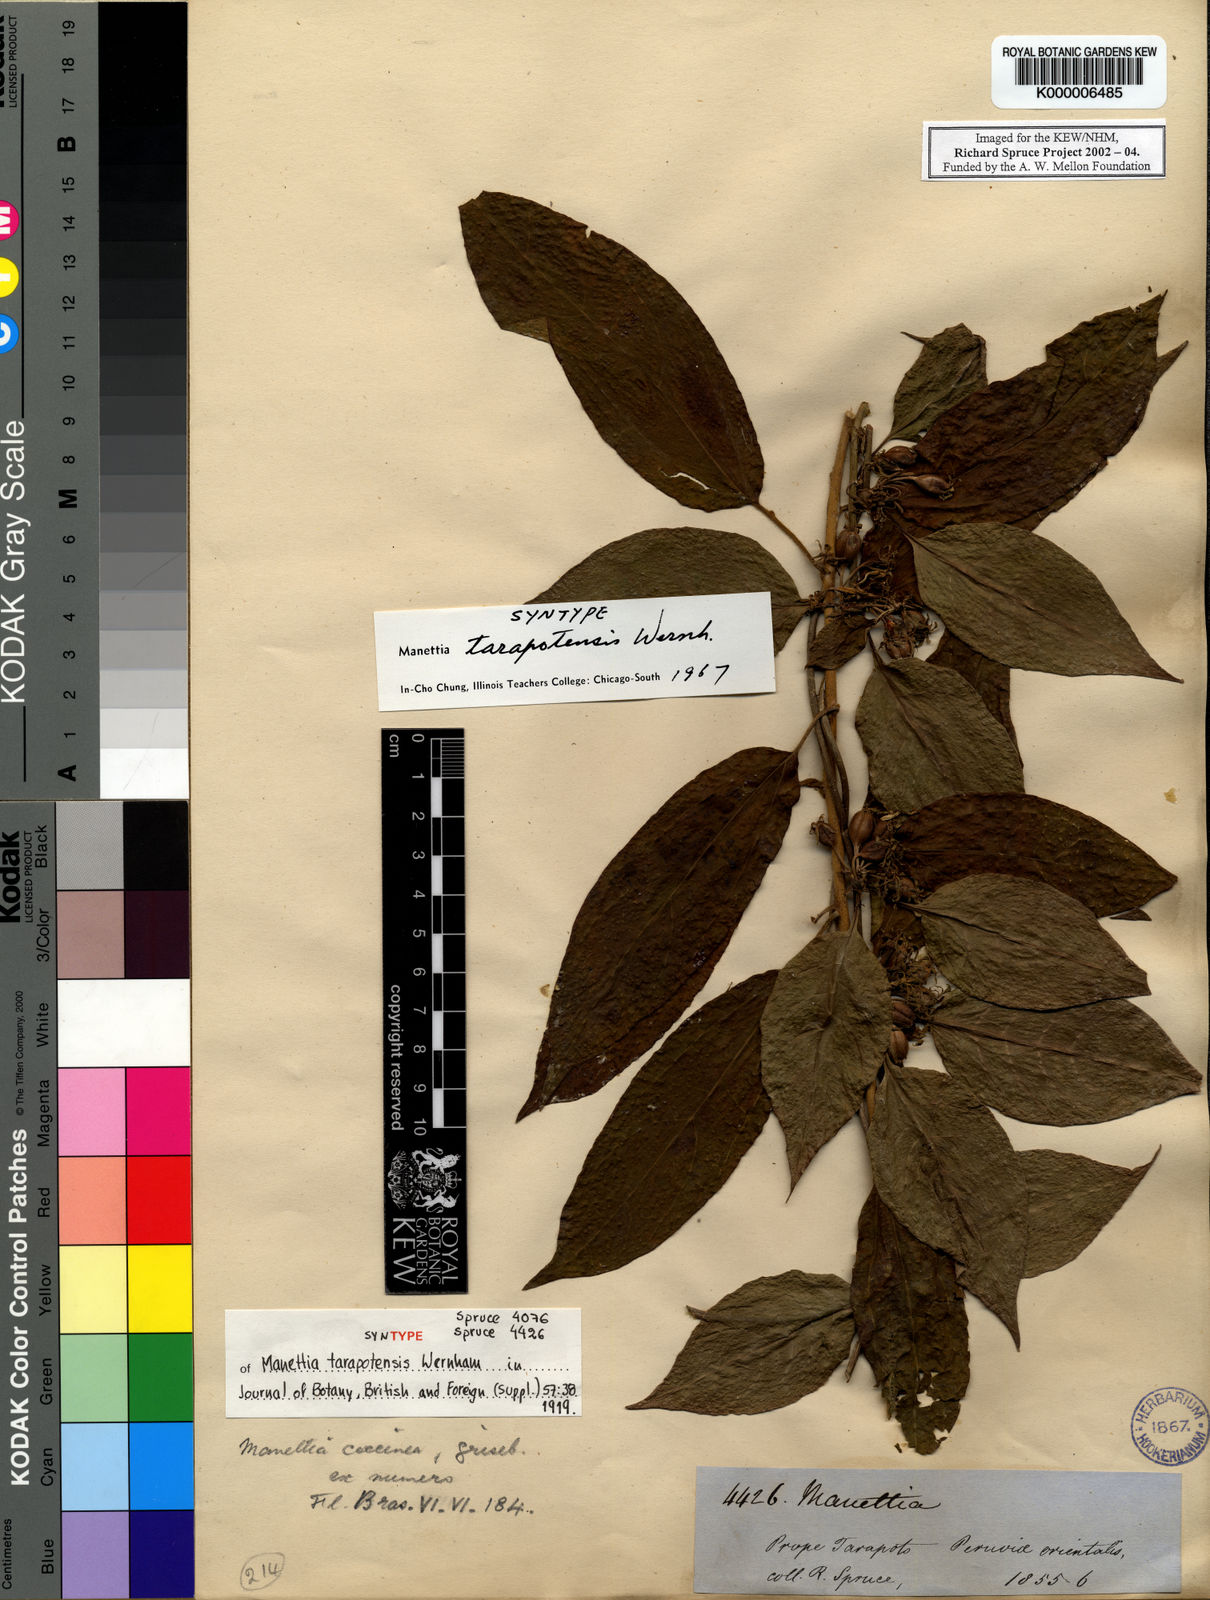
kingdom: Plantae
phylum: Tracheophyta
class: Magnoliopsida
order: Gentianales
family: Rubiaceae
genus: Manettia
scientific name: Manettia reclinata
